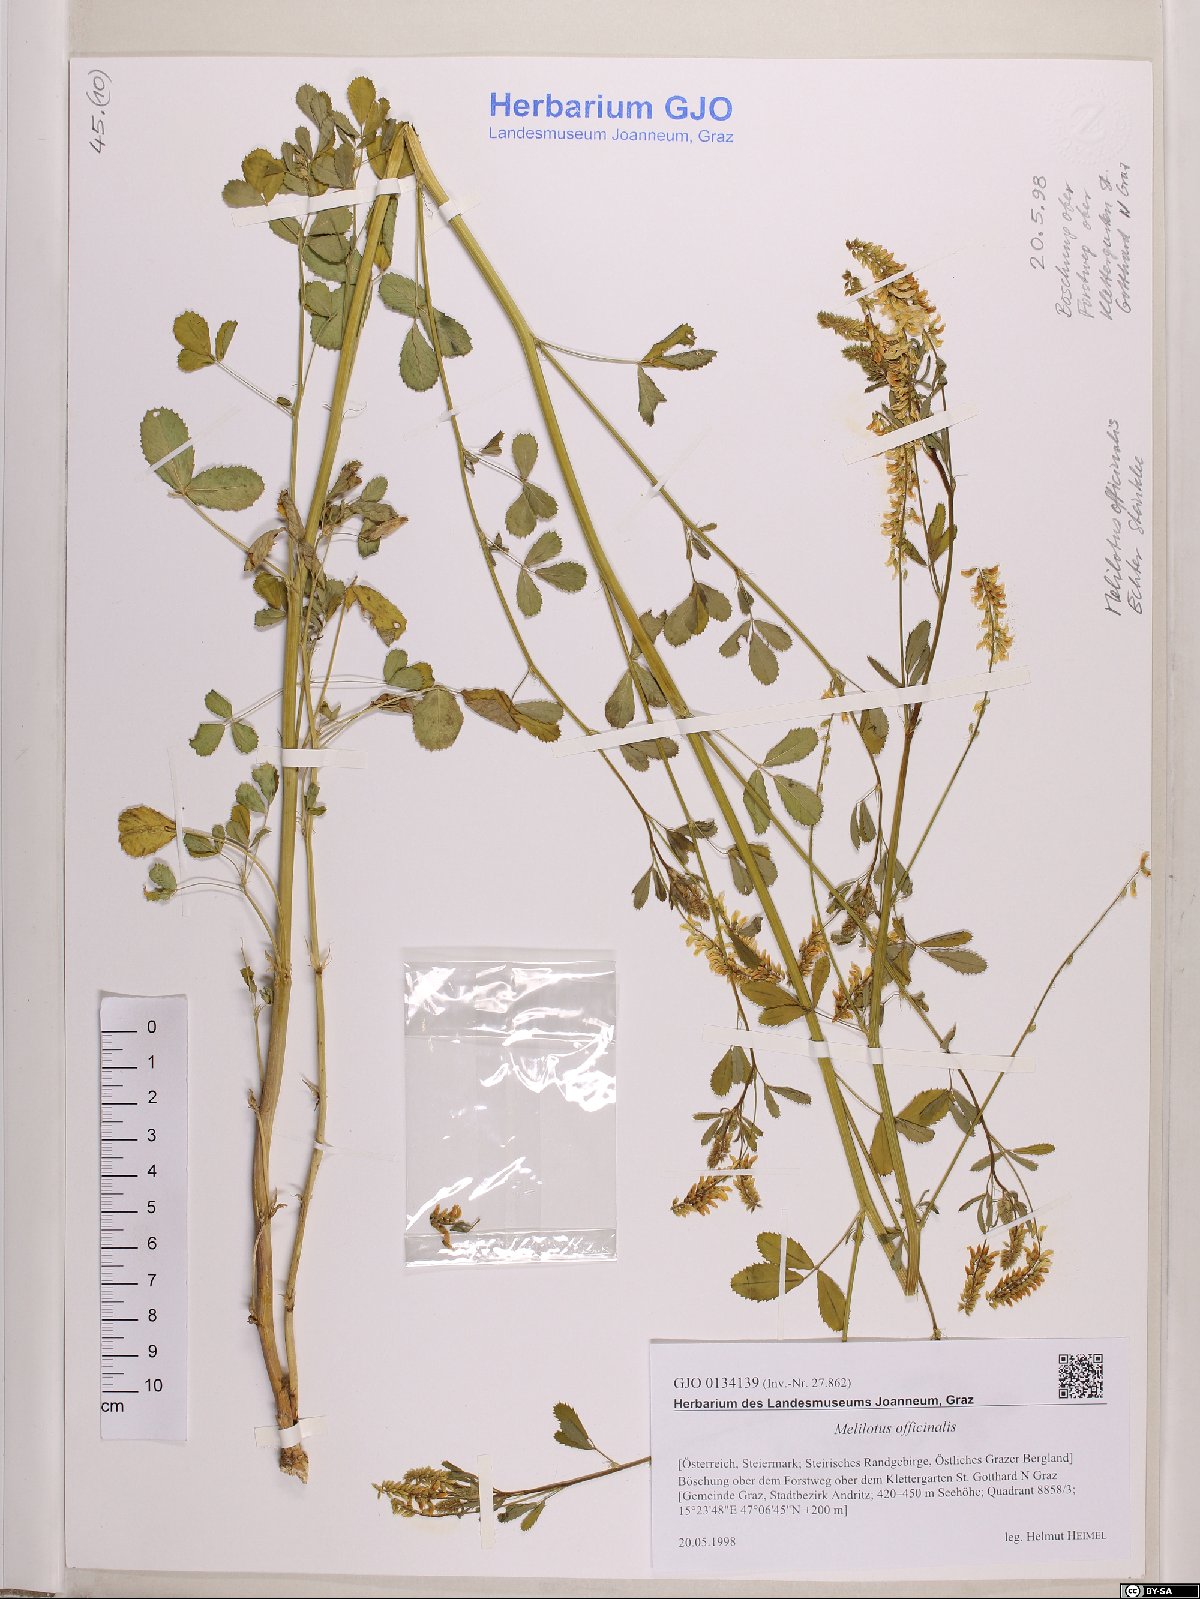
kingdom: Plantae
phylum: Tracheophyta
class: Magnoliopsida
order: Fabales
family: Fabaceae
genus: Melilotus
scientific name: Melilotus officinalis
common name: Sweetclover
